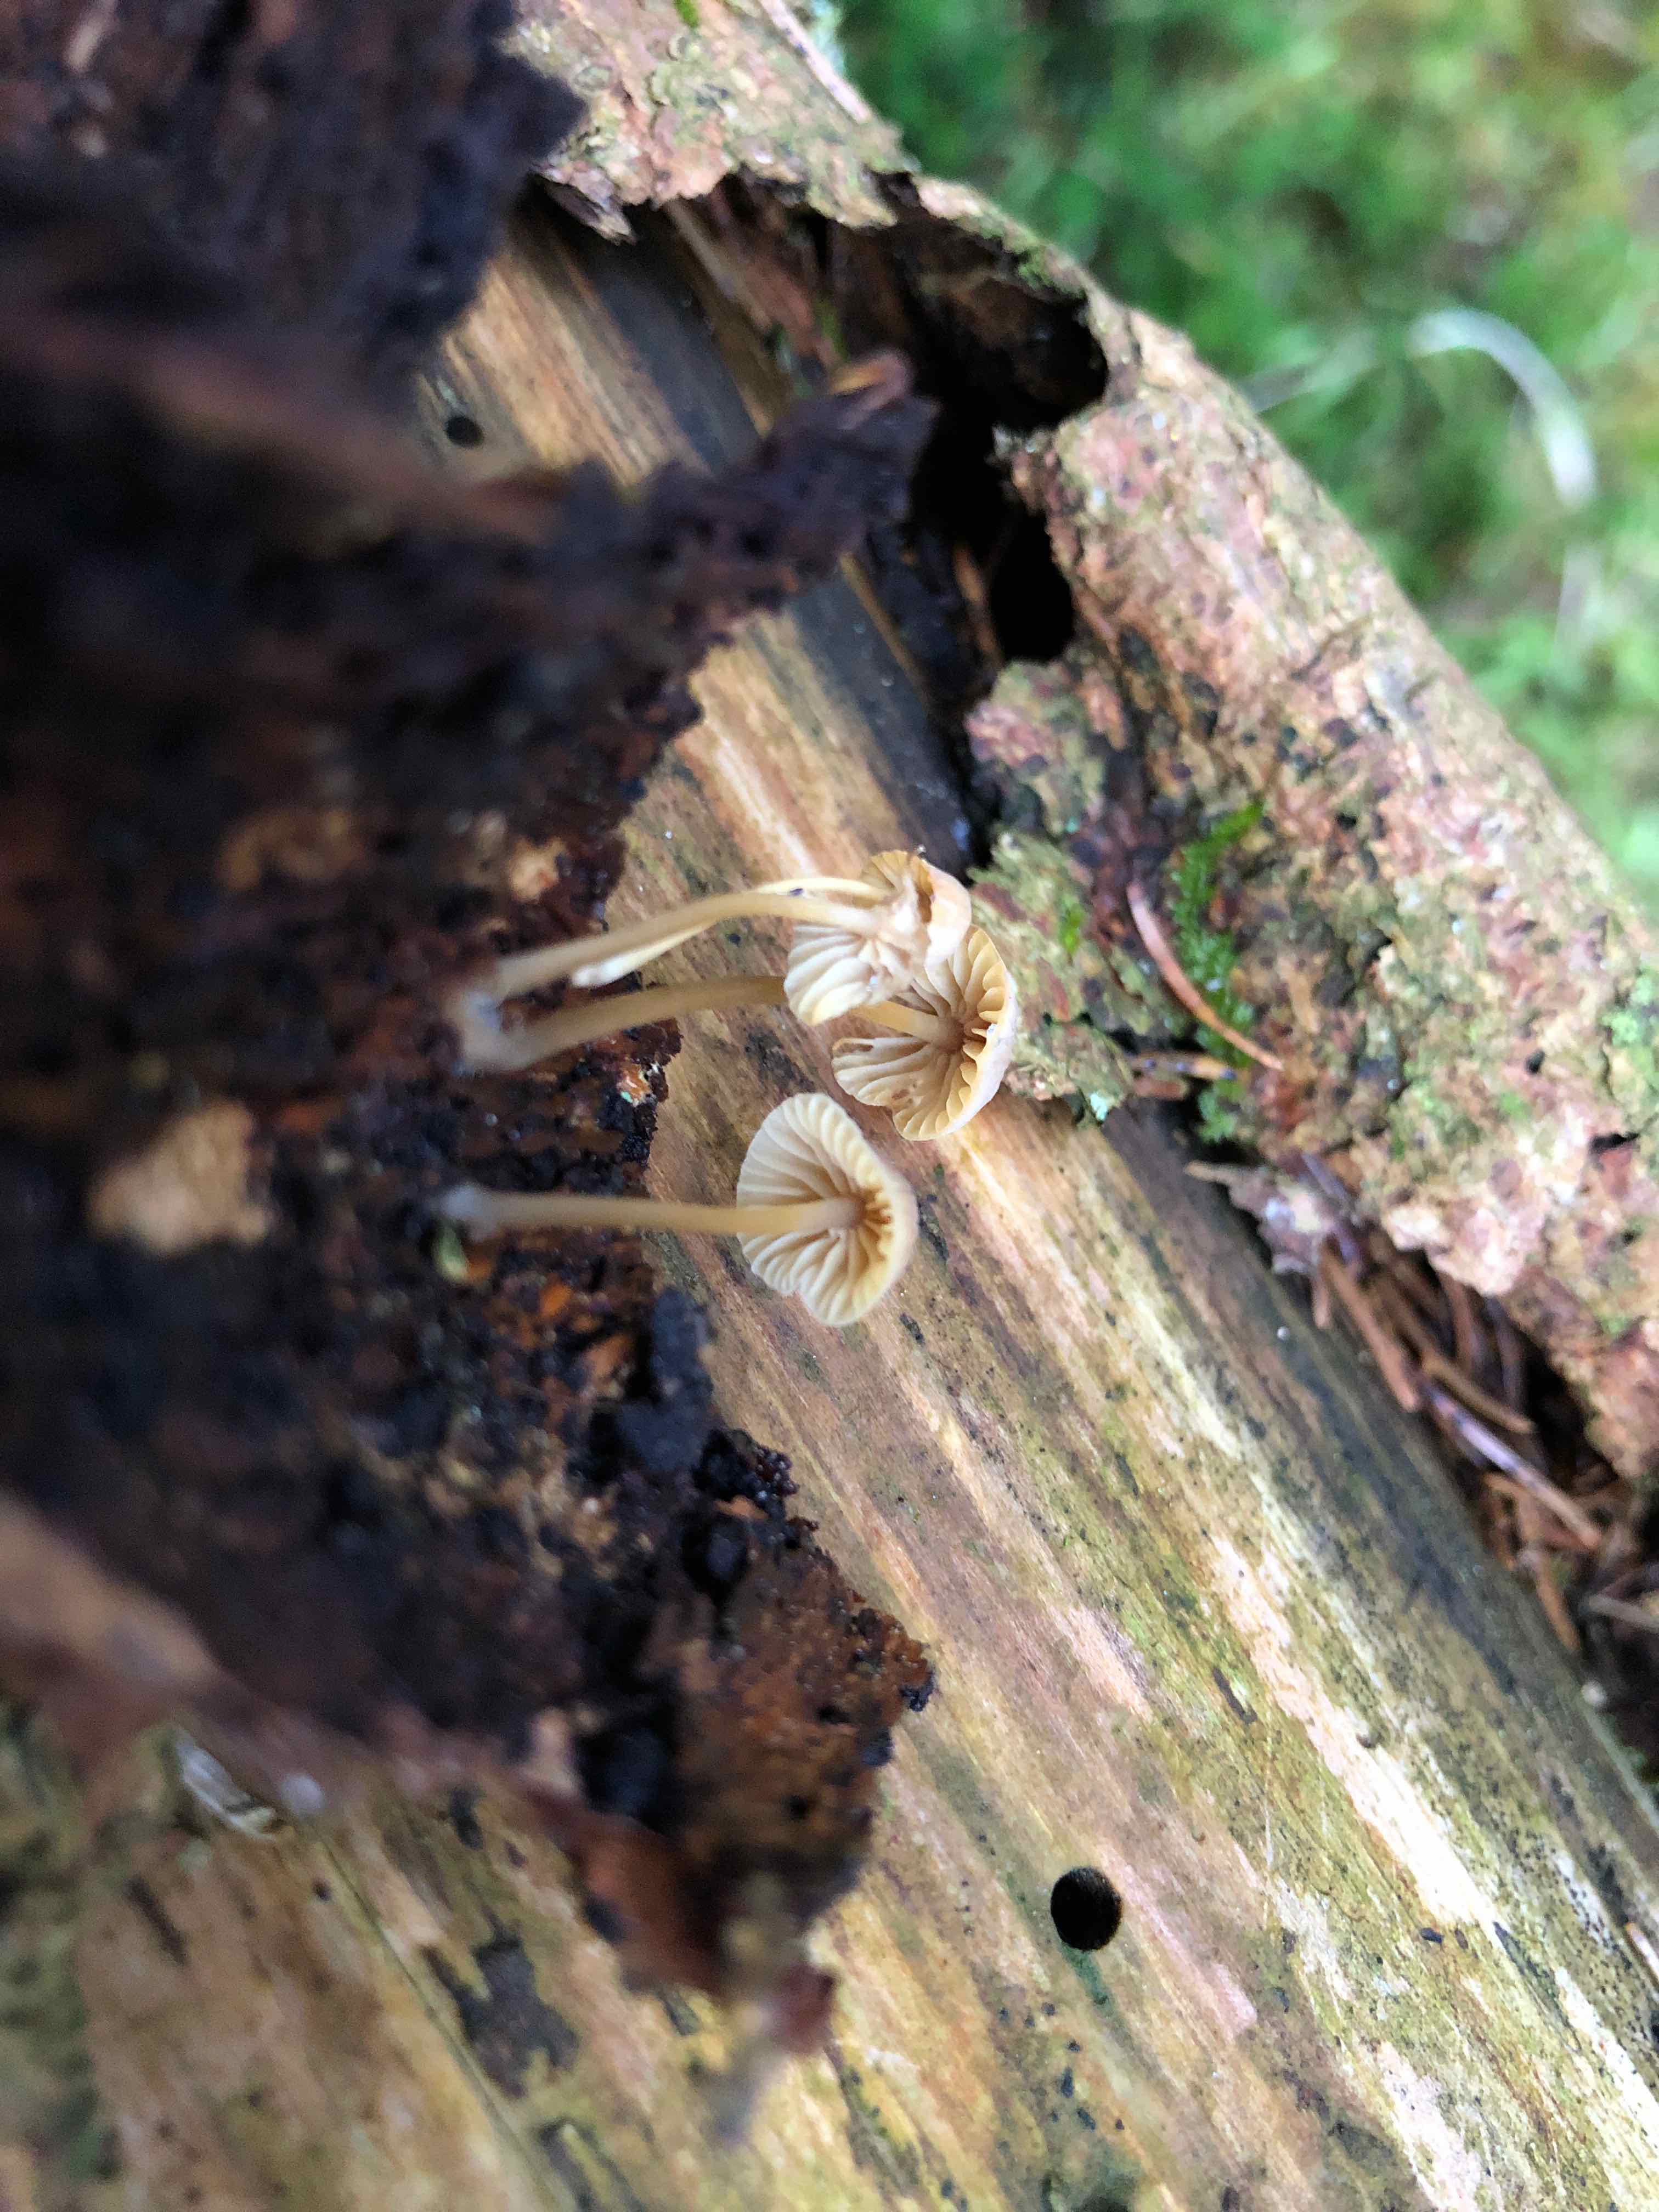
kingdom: Fungi
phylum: Basidiomycota
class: Agaricomycetes
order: Agaricales
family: Mycenaceae
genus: Mycena
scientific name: Mycena metata
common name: rødlig huesvamp
